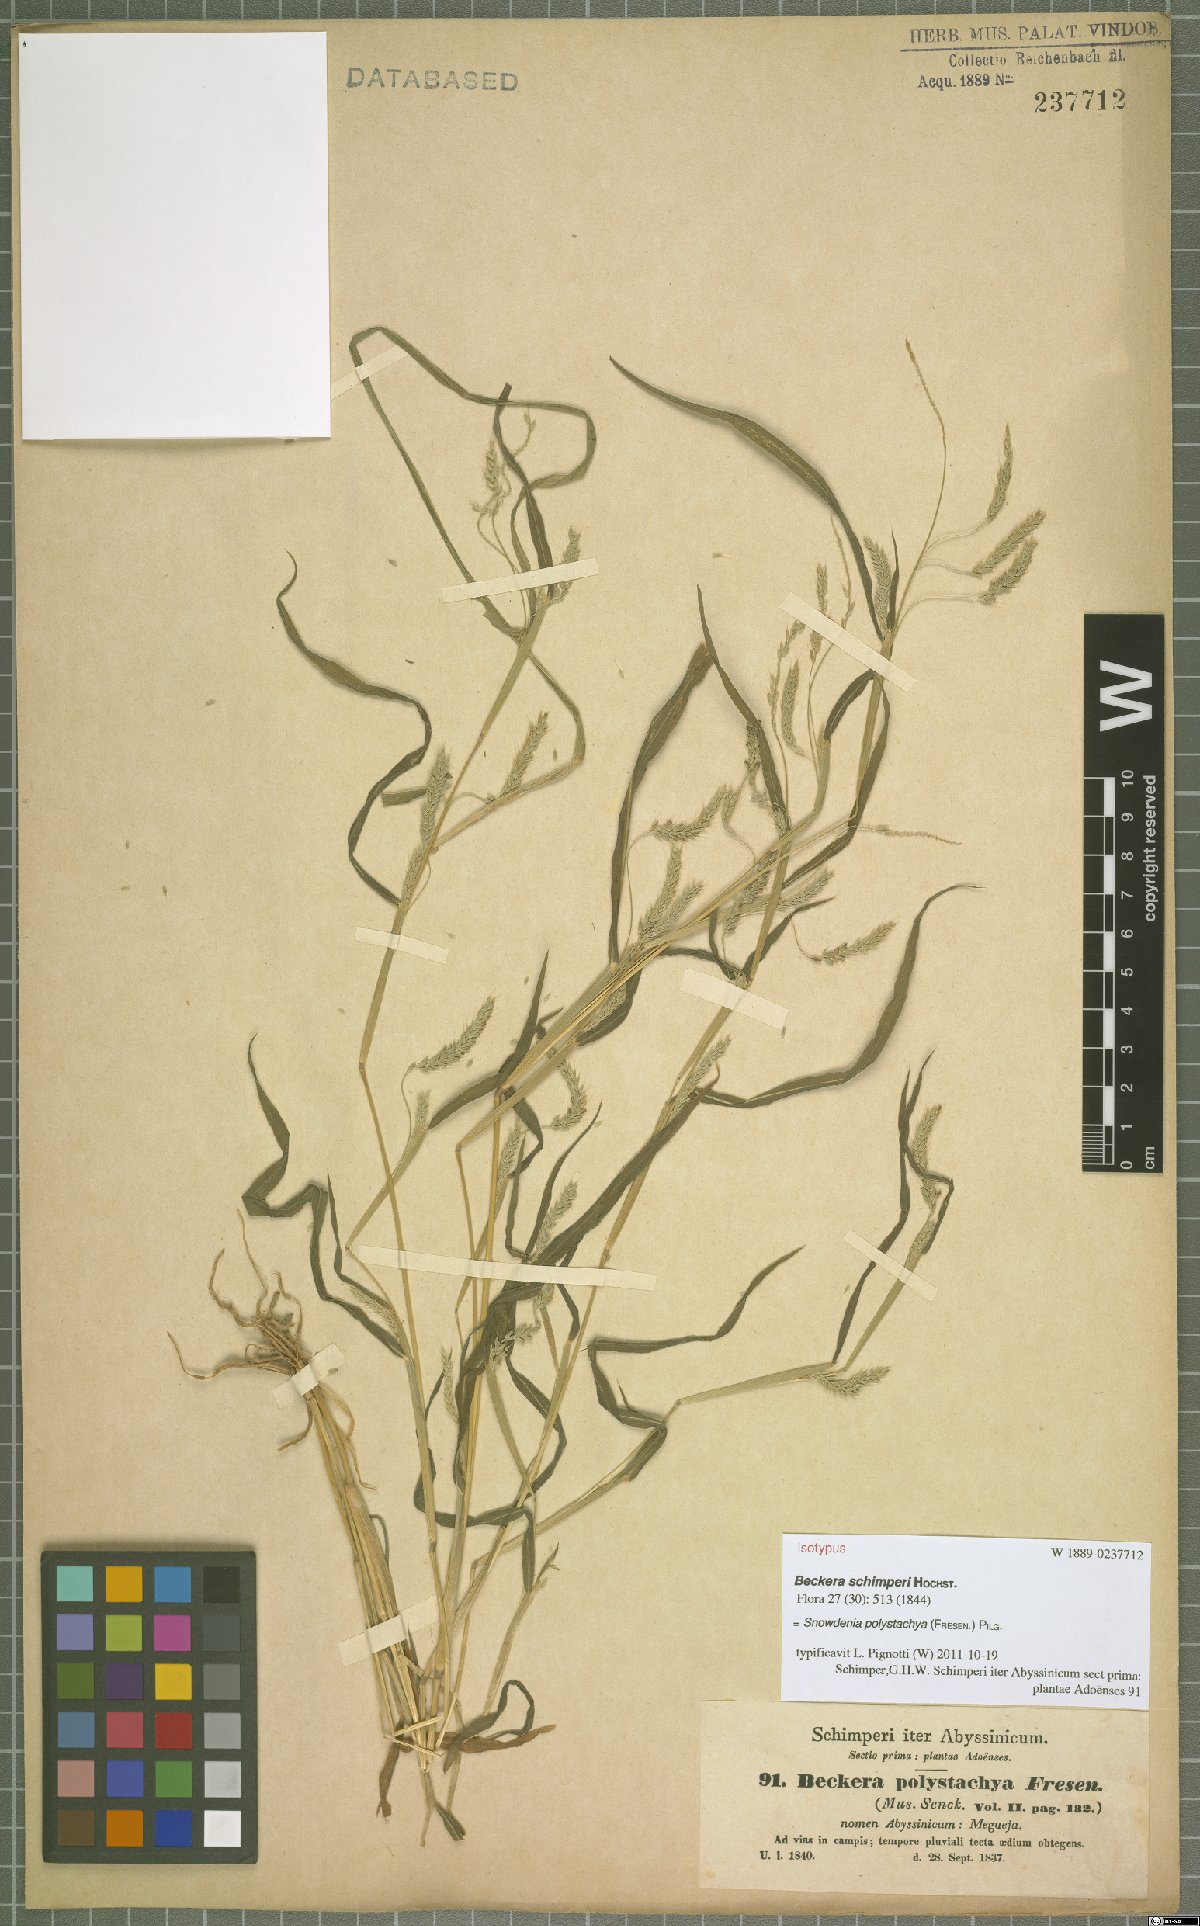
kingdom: Plantae
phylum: Tracheophyta
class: Liliopsida
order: Poales
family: Poaceae
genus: Snowdenia
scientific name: Snowdenia polystachya
